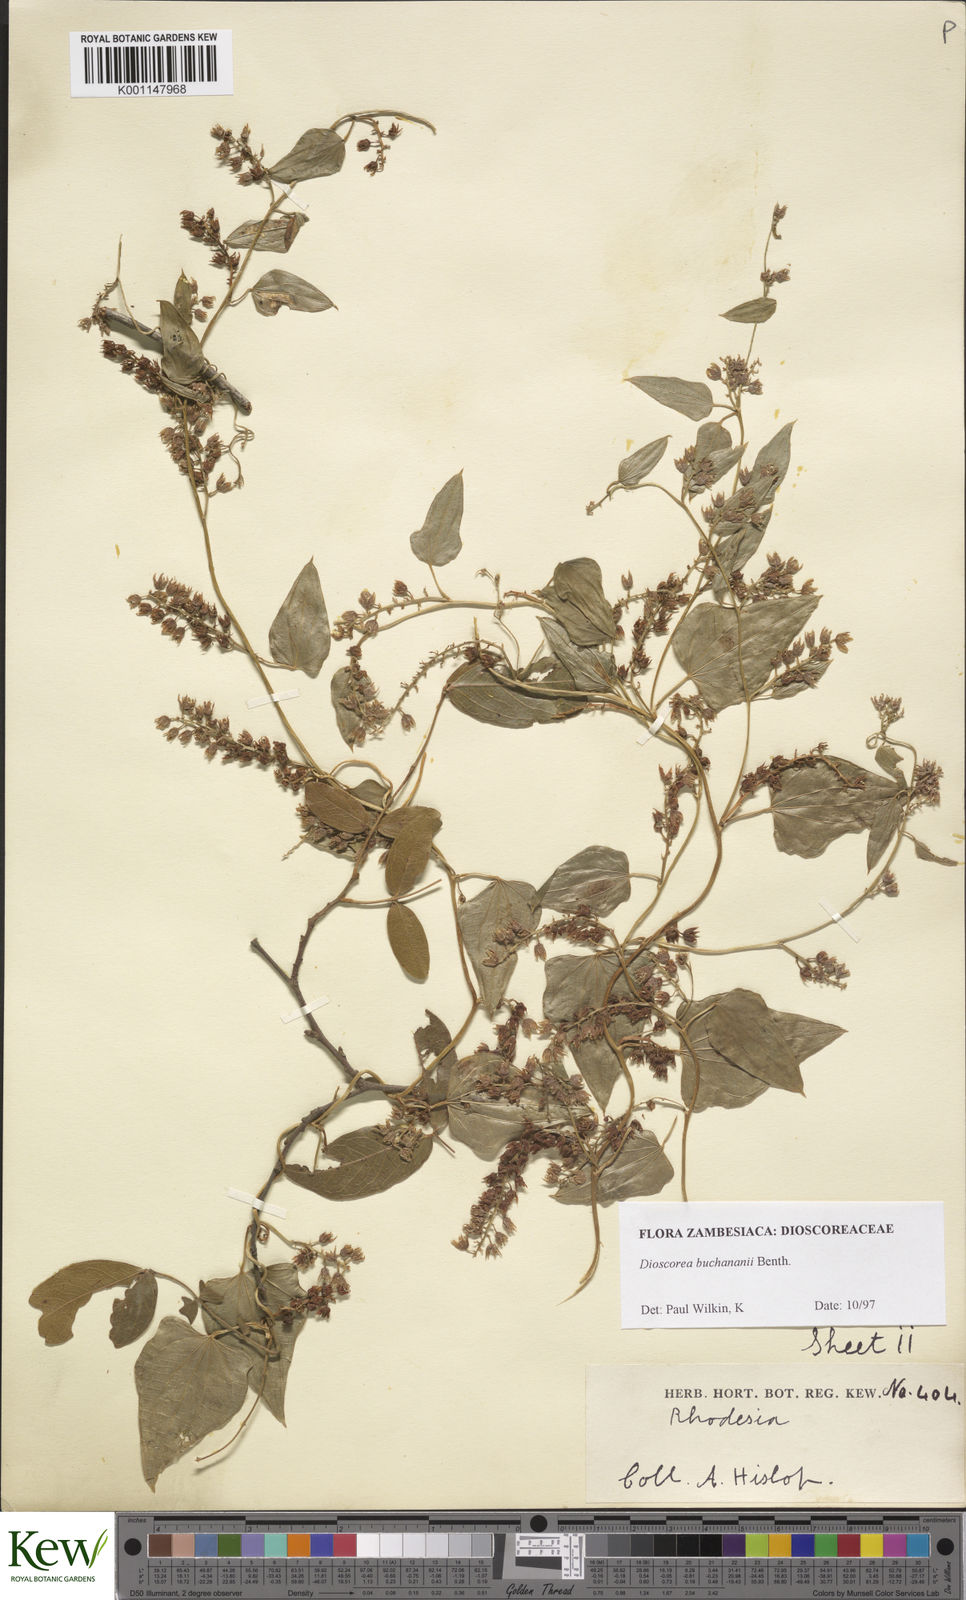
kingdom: Plantae
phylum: Tracheophyta
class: Liliopsida
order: Dioscoreales
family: Dioscoreaceae
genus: Dioscorea
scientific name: Dioscorea buchananii
